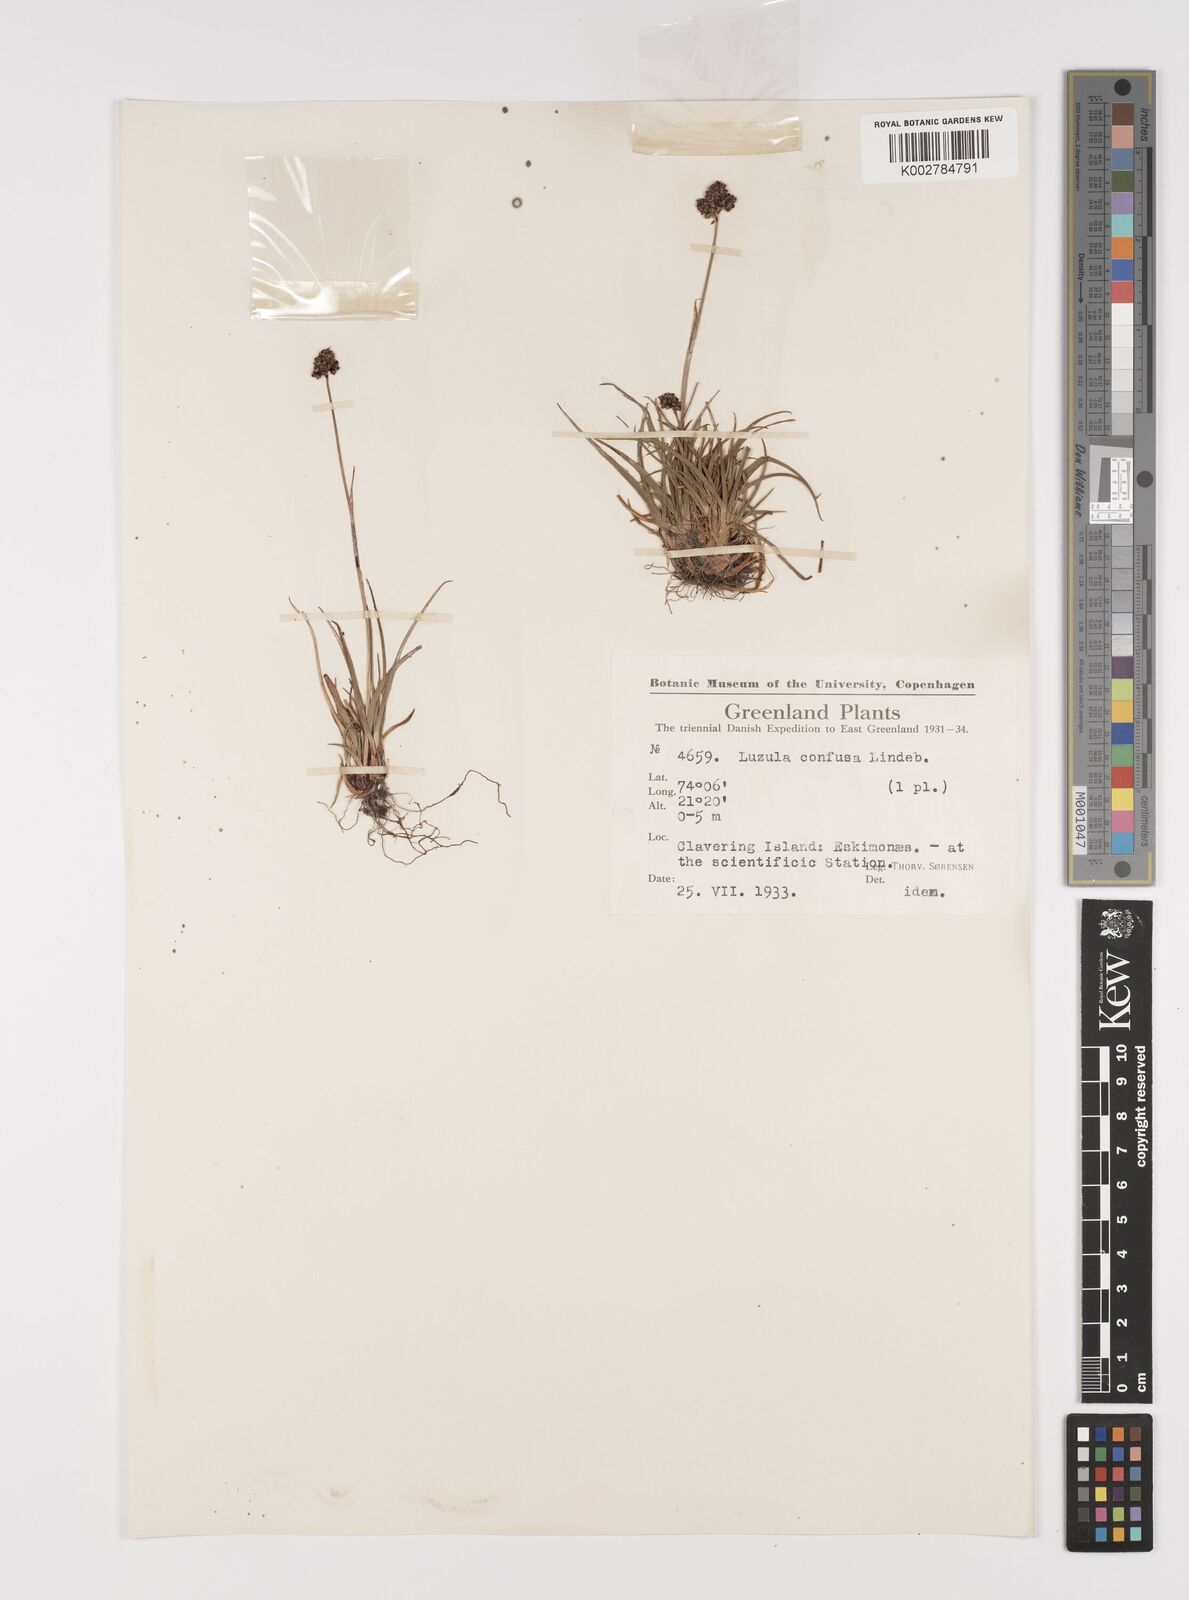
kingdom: Plantae
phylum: Tracheophyta
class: Liliopsida
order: Poales
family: Juncaceae
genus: Luzula
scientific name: Luzula confusa
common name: Northern wood rush
